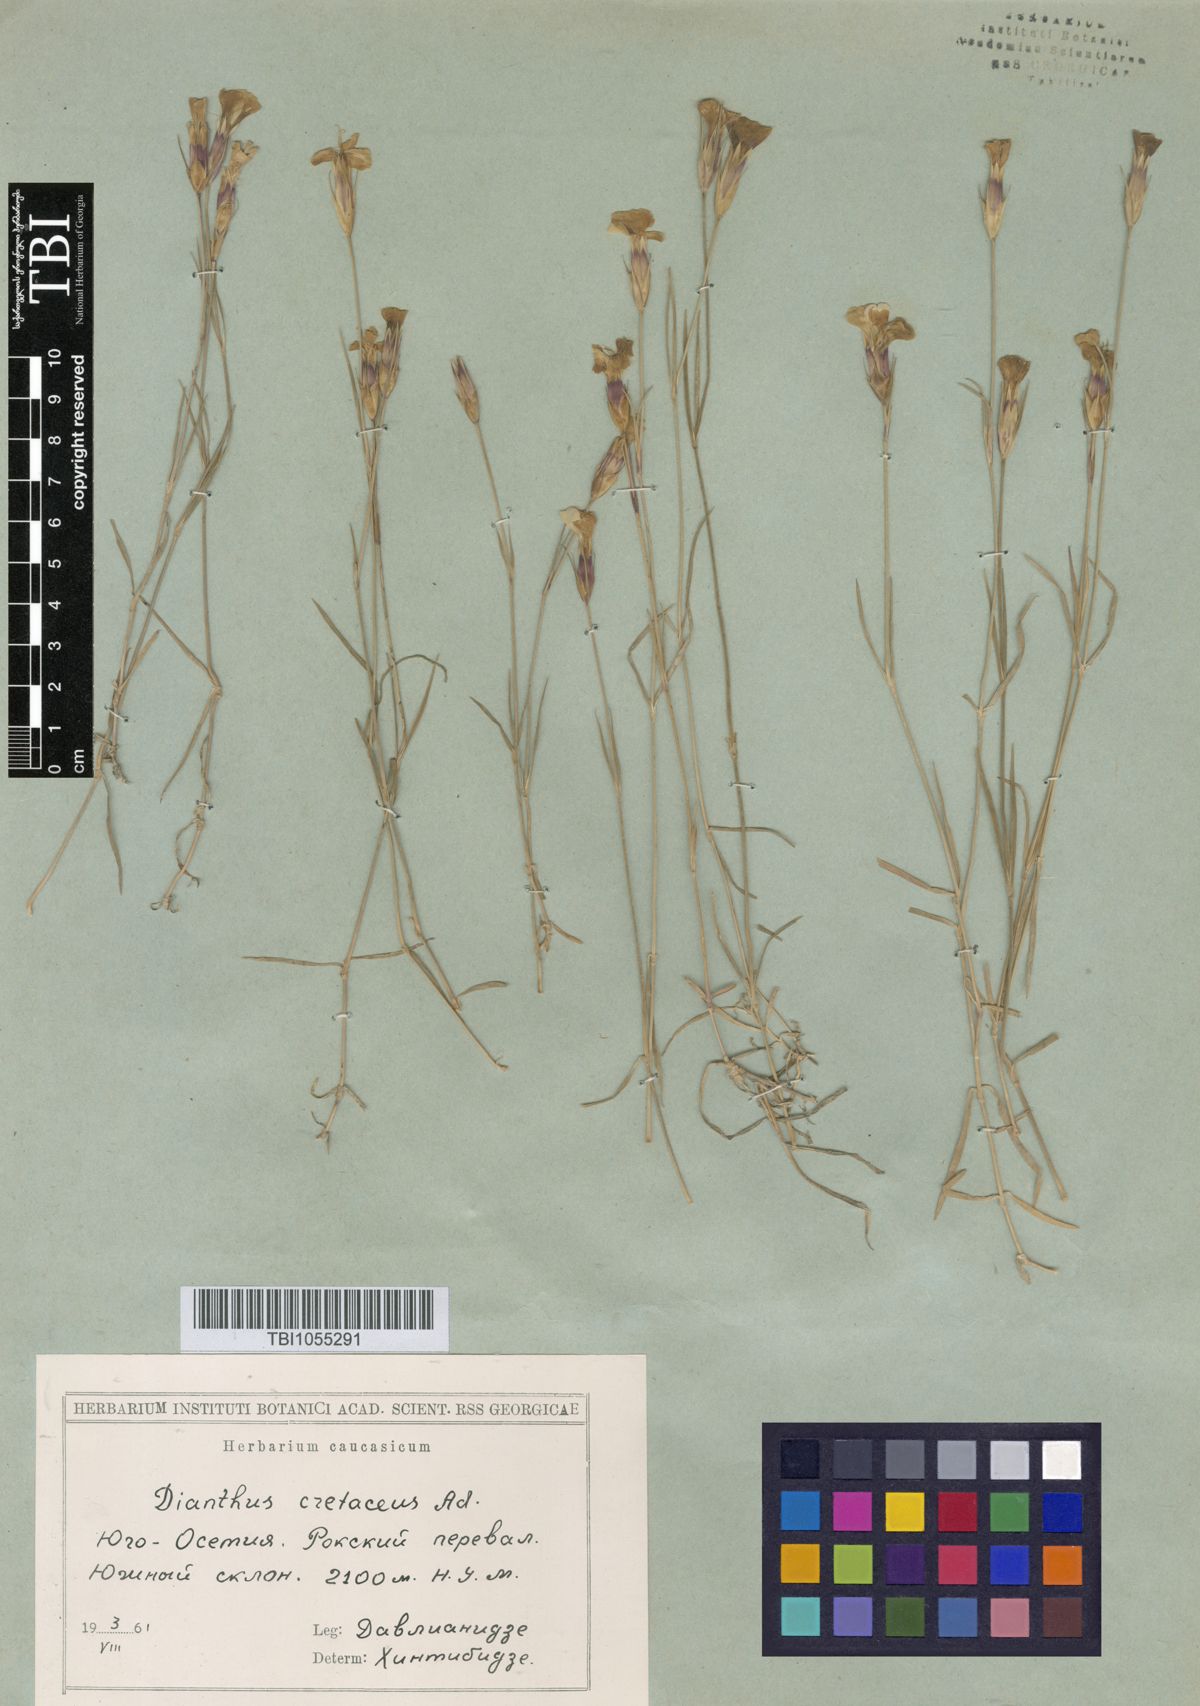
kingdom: Plantae
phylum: Tracheophyta
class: Magnoliopsida
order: Caryophyllales
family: Caryophyllaceae
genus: Dianthus
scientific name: Dianthus cretaceus
